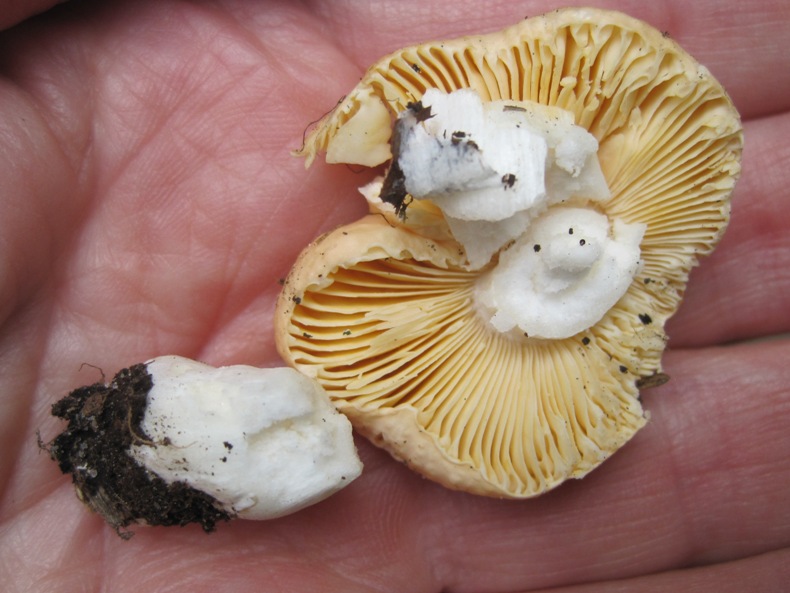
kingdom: Fungi
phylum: Basidiomycota
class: Agaricomycetes
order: Russulales
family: Russulaceae
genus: Russula
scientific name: Russula risigallina
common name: abrikos-skørhat
